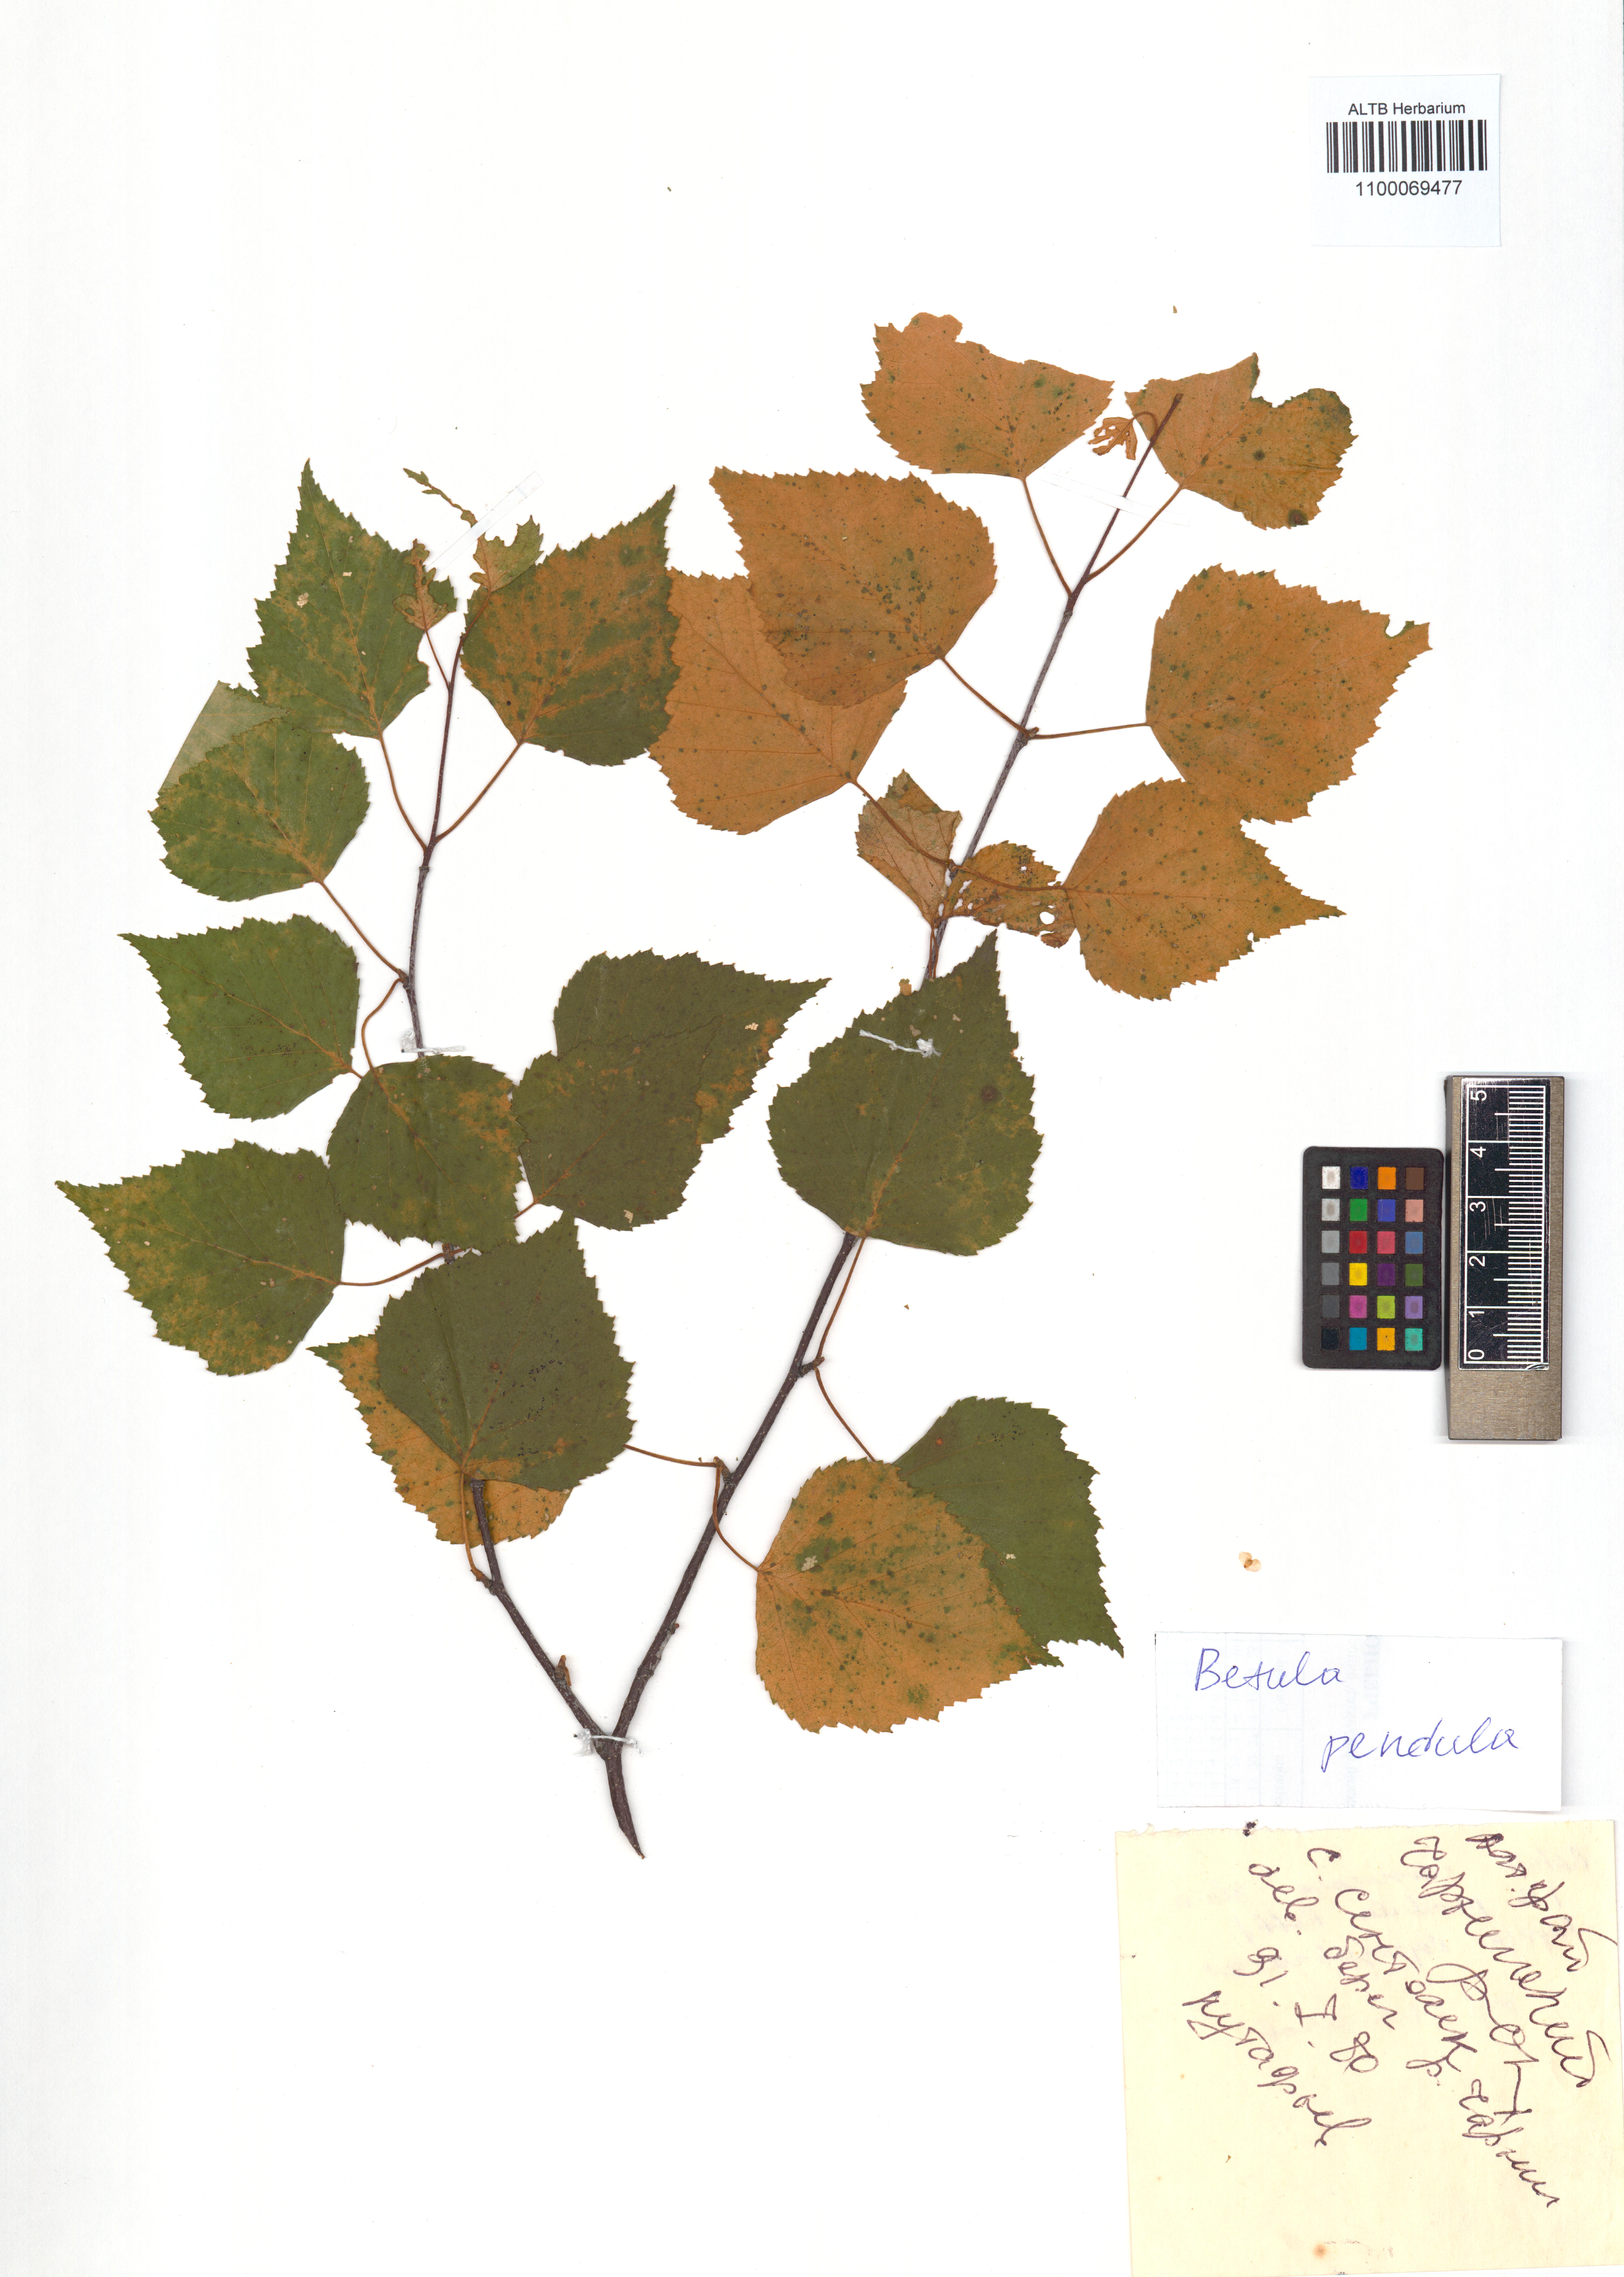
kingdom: Plantae
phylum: Tracheophyta
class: Magnoliopsida
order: Fagales
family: Betulaceae
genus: Betula
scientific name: Betula pendula
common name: Silver birch
